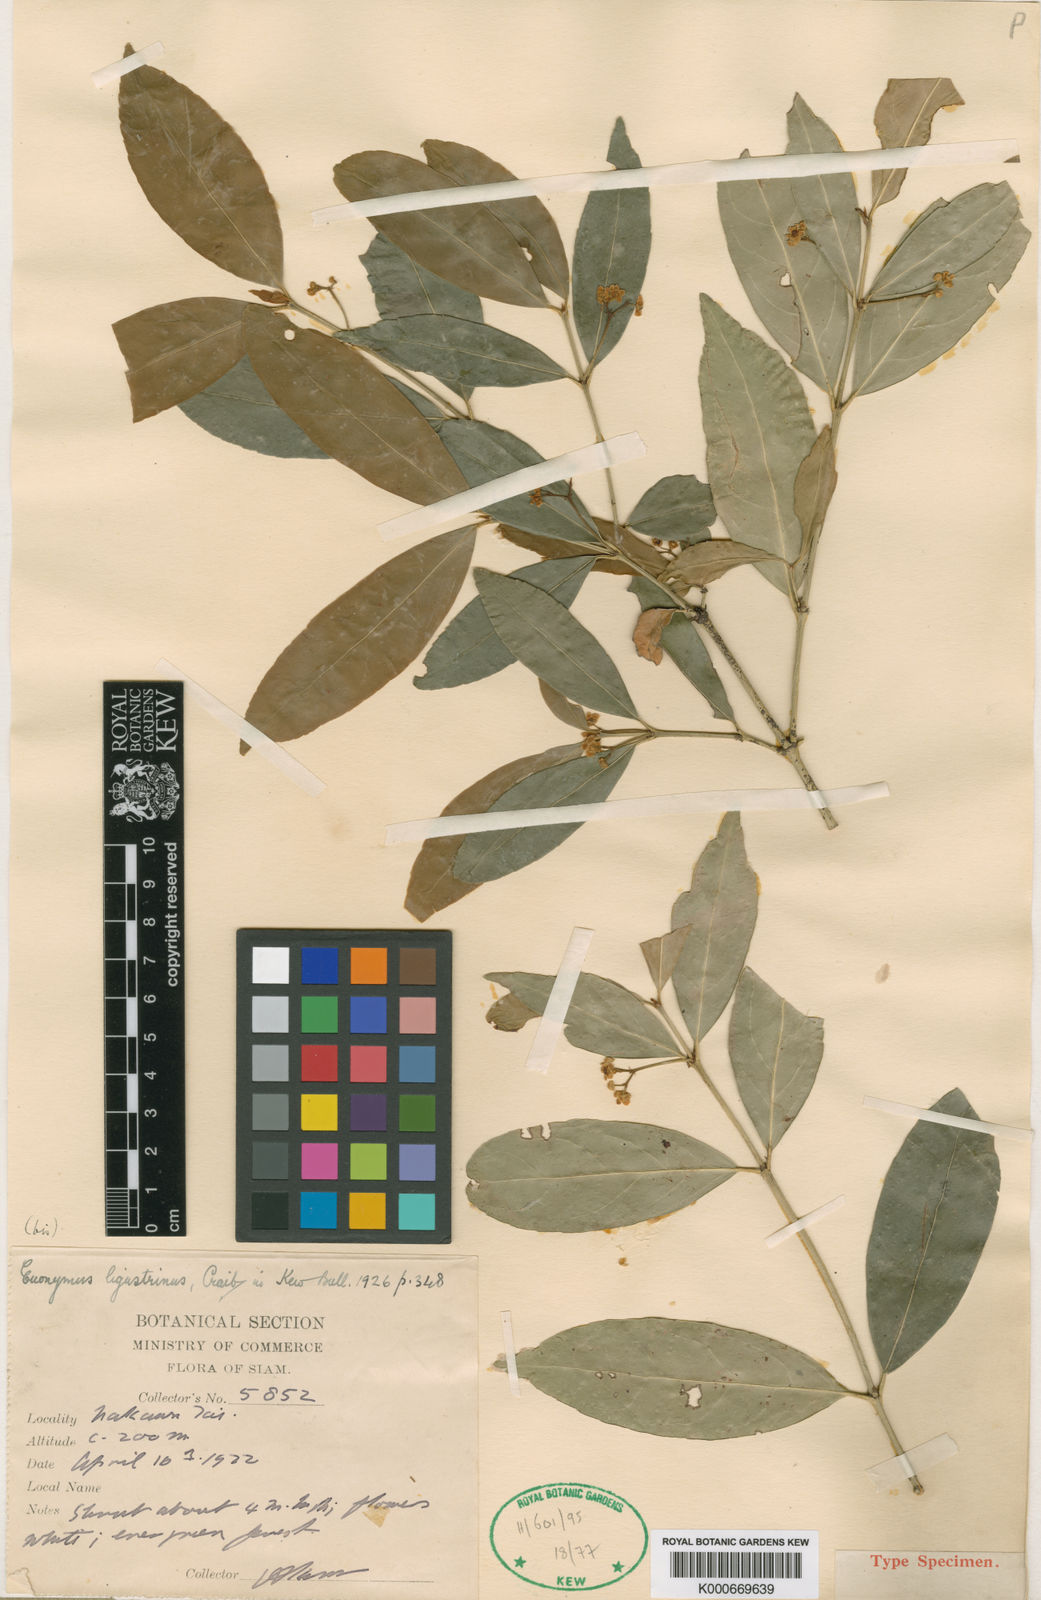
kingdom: Plantae
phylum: Tracheophyta
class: Magnoliopsida
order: Celastrales
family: Celastraceae
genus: Euonymus
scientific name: Euonymus glaber
